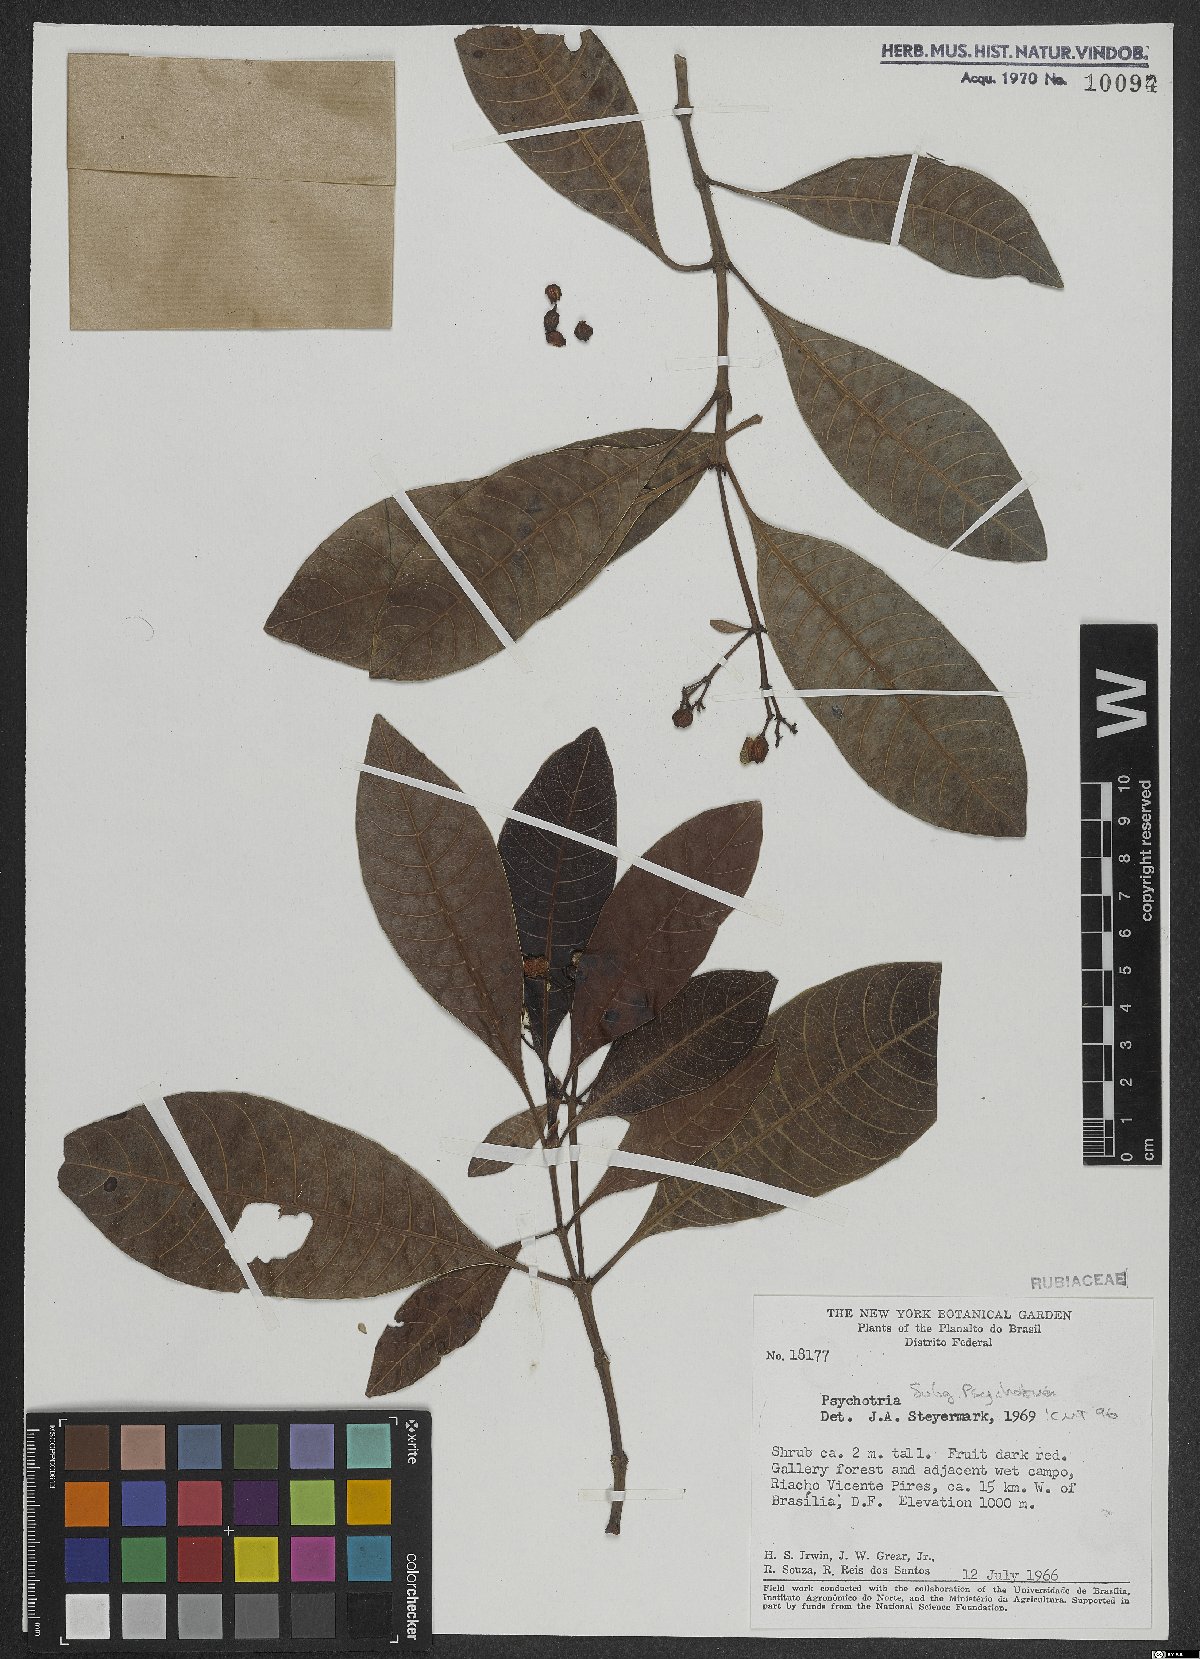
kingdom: Plantae
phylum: Tracheophyta
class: Magnoliopsida
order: Gentianales
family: Rubiaceae
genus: Psychotria
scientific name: Psychotria
